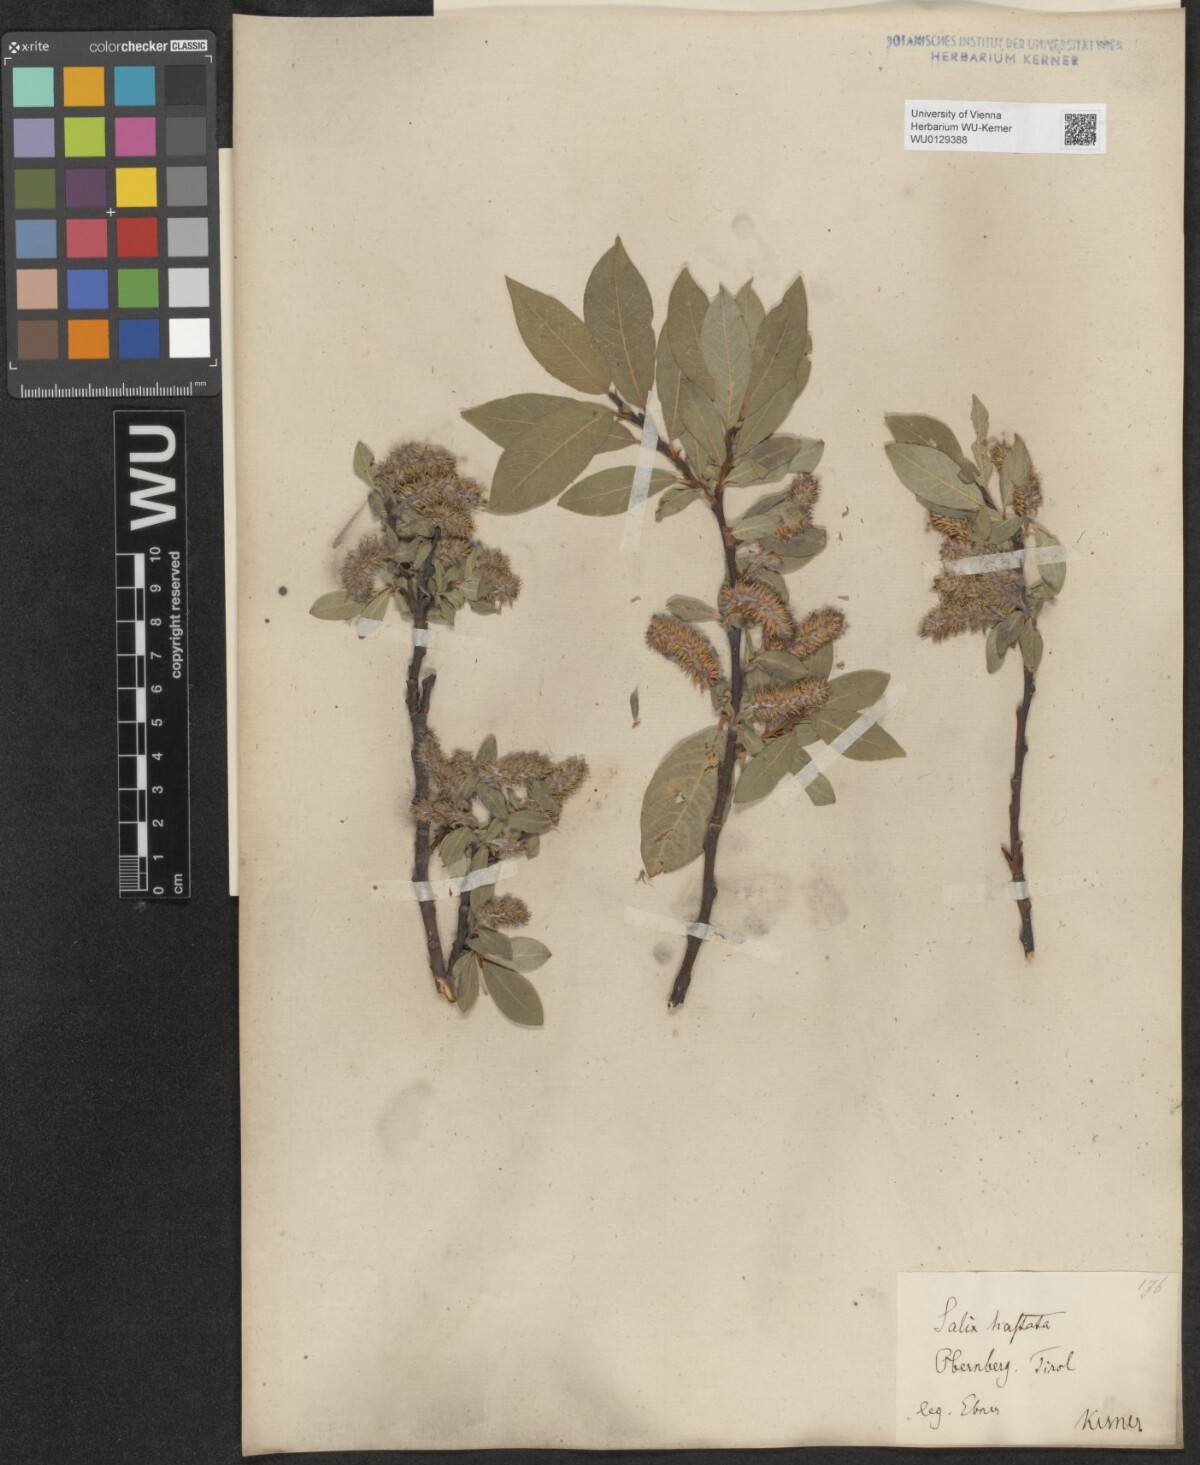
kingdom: Plantae
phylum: Tracheophyta
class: Magnoliopsida
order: Malpighiales
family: Salicaceae
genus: Salix
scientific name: Salix hastata
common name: Halberd willow
